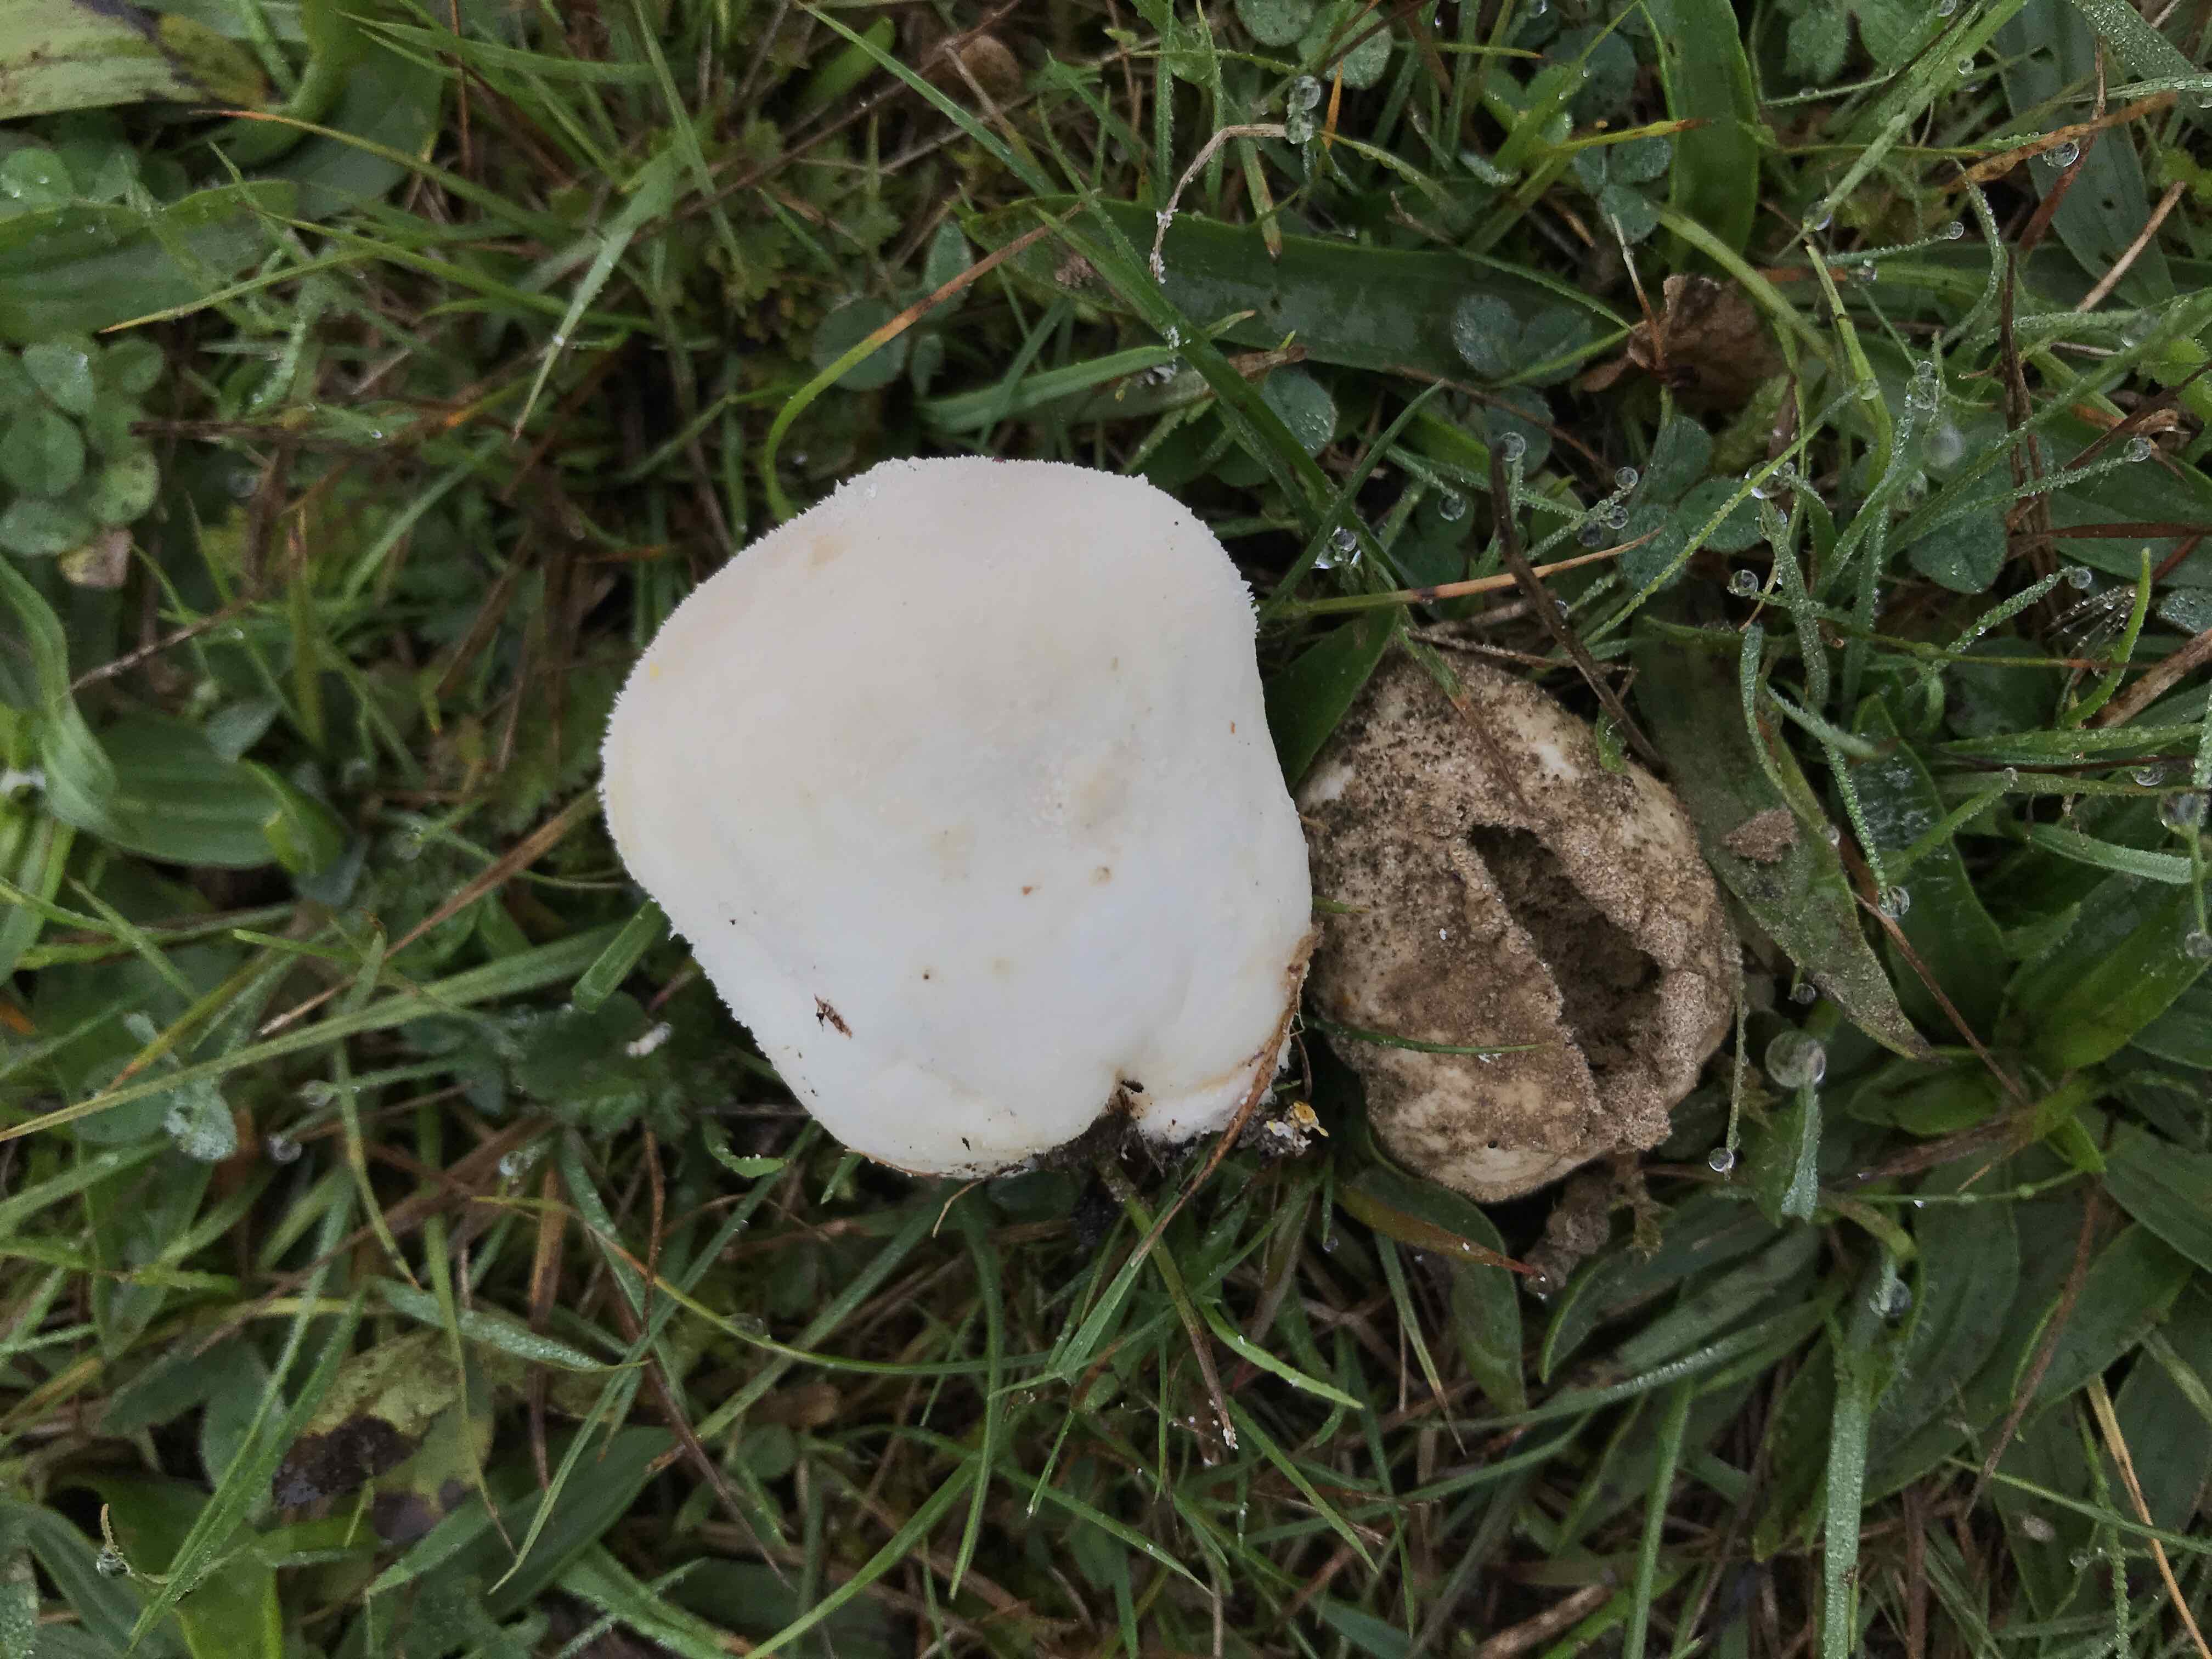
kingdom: Fungi
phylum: Basidiomycota
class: Agaricomycetes
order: Agaricales
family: Lycoperdaceae
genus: Lycoperdon
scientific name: Lycoperdon pratense
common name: flad støvbold
